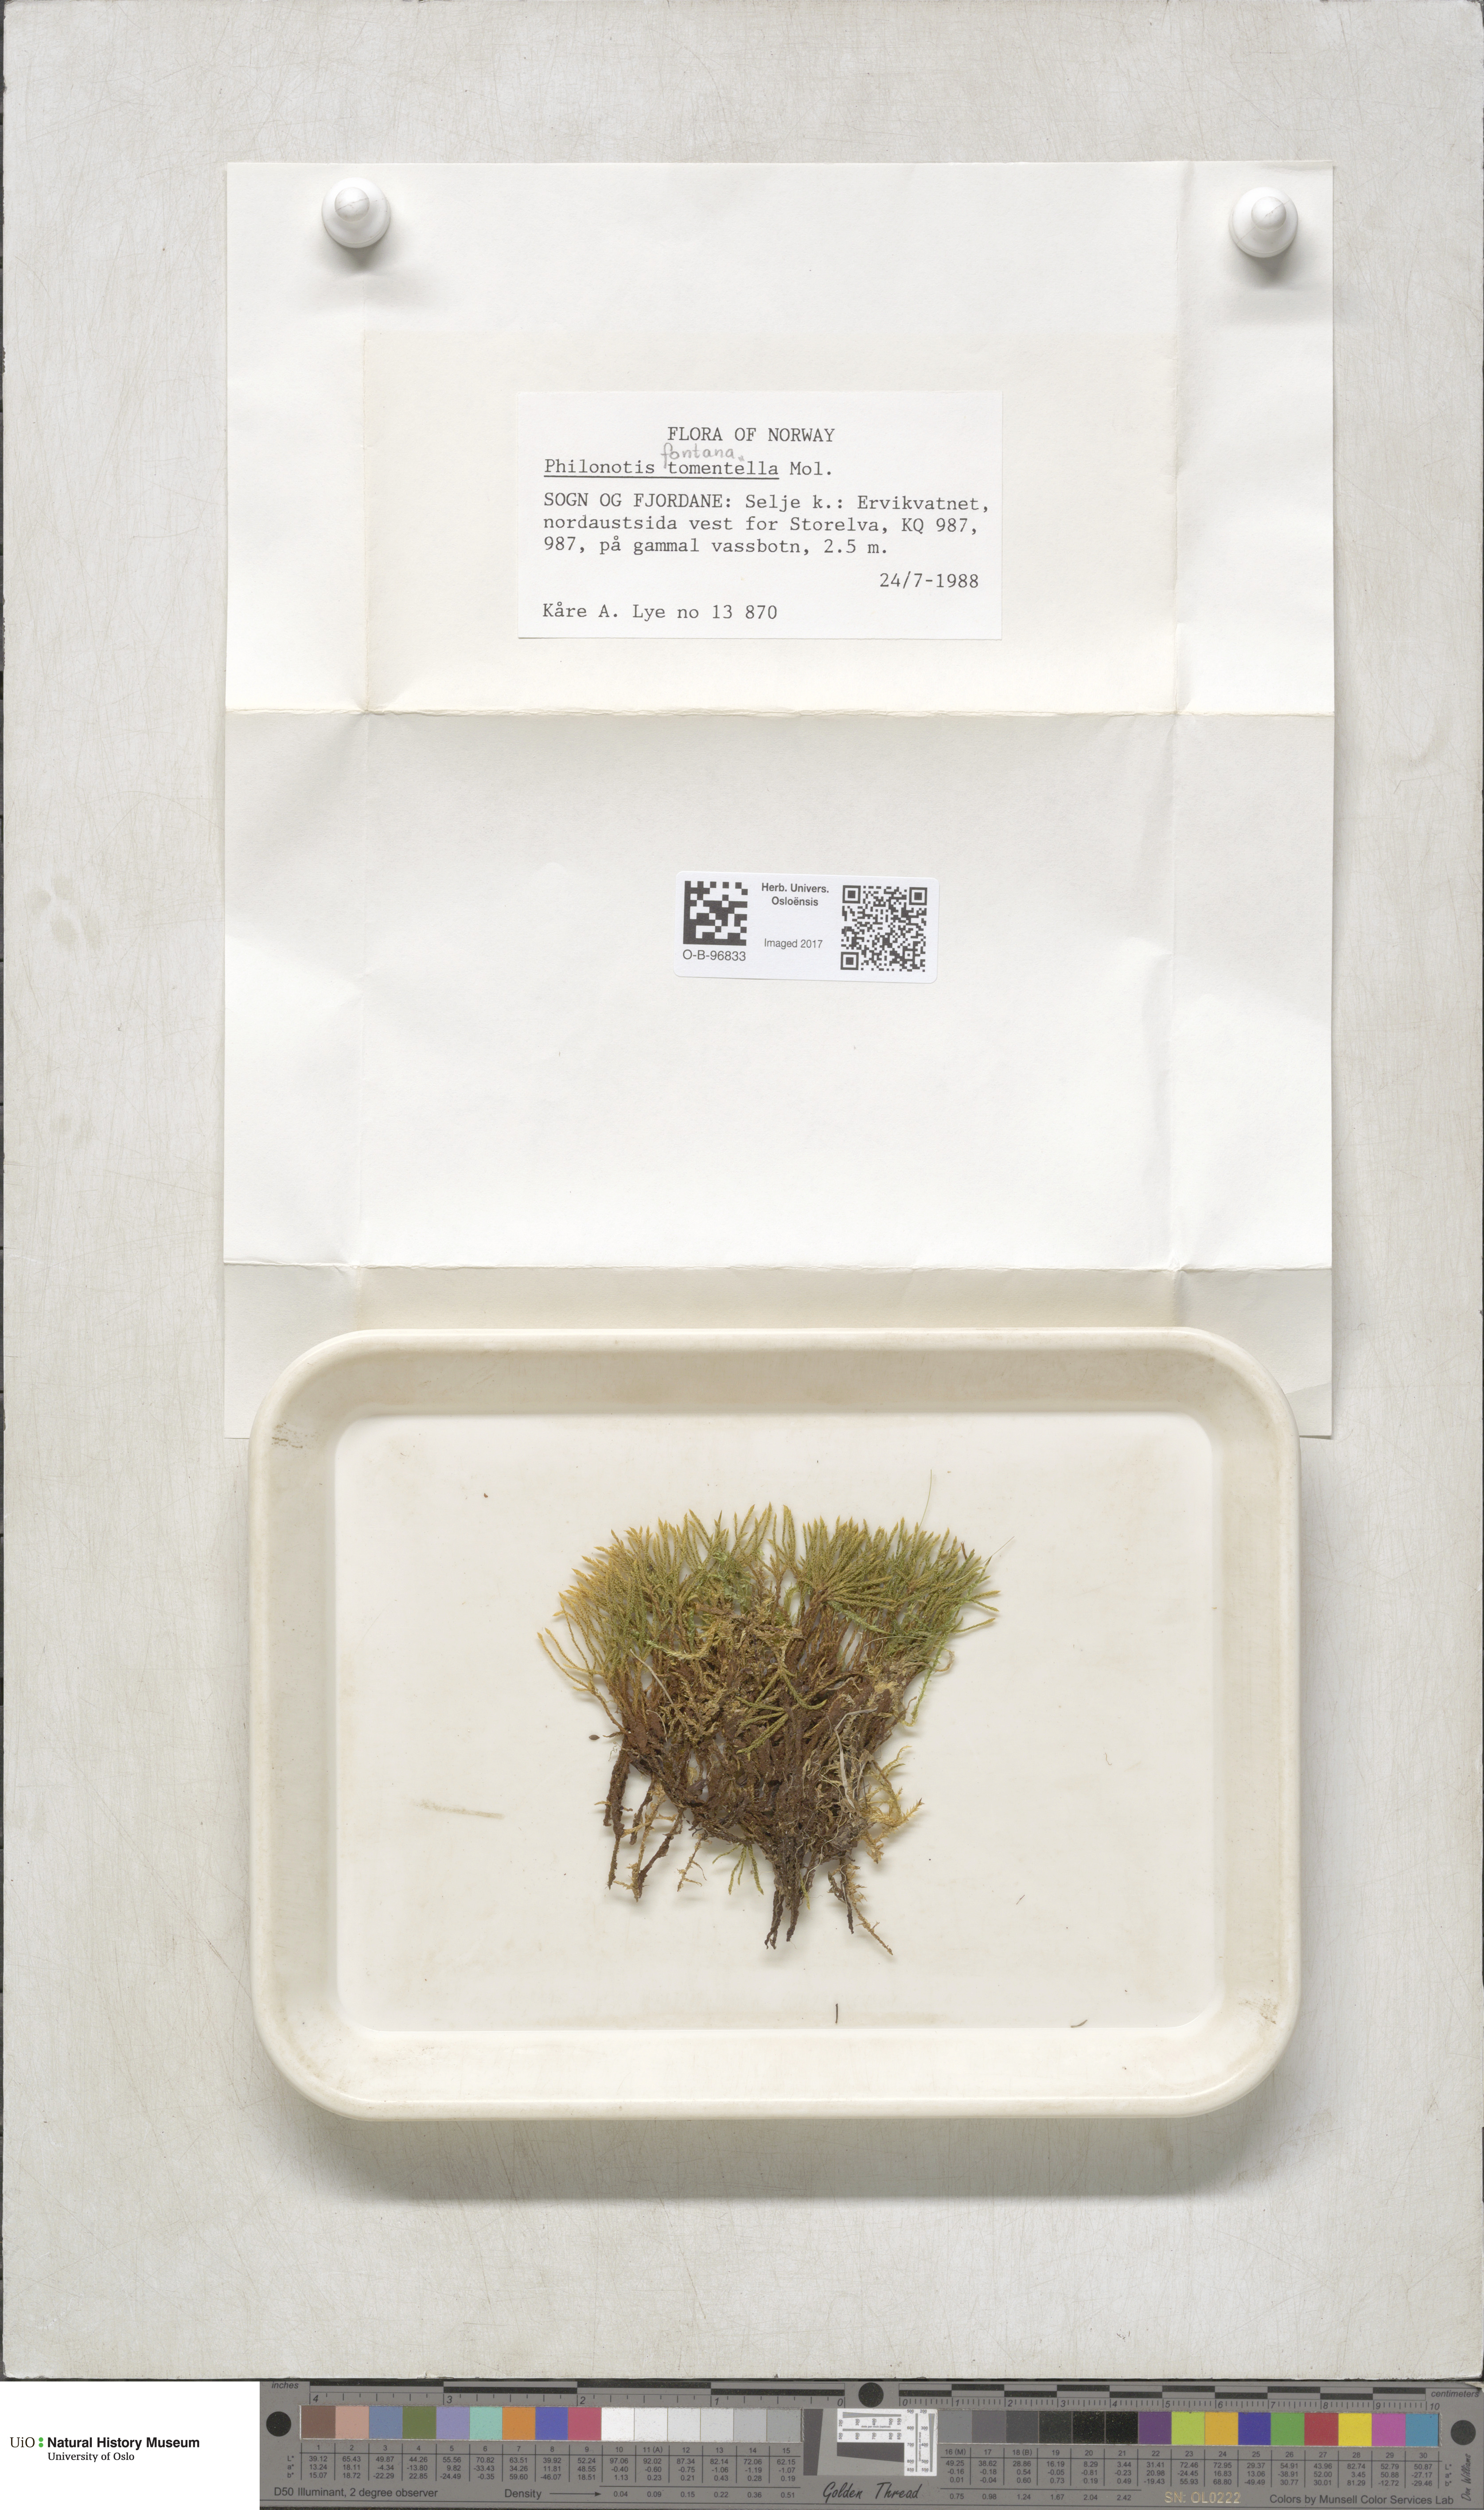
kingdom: Plantae
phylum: Bryophyta
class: Bryopsida
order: Bartramiales
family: Bartramiaceae
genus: Philonotis
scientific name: Philonotis fontana
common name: Fountain apple-moss
